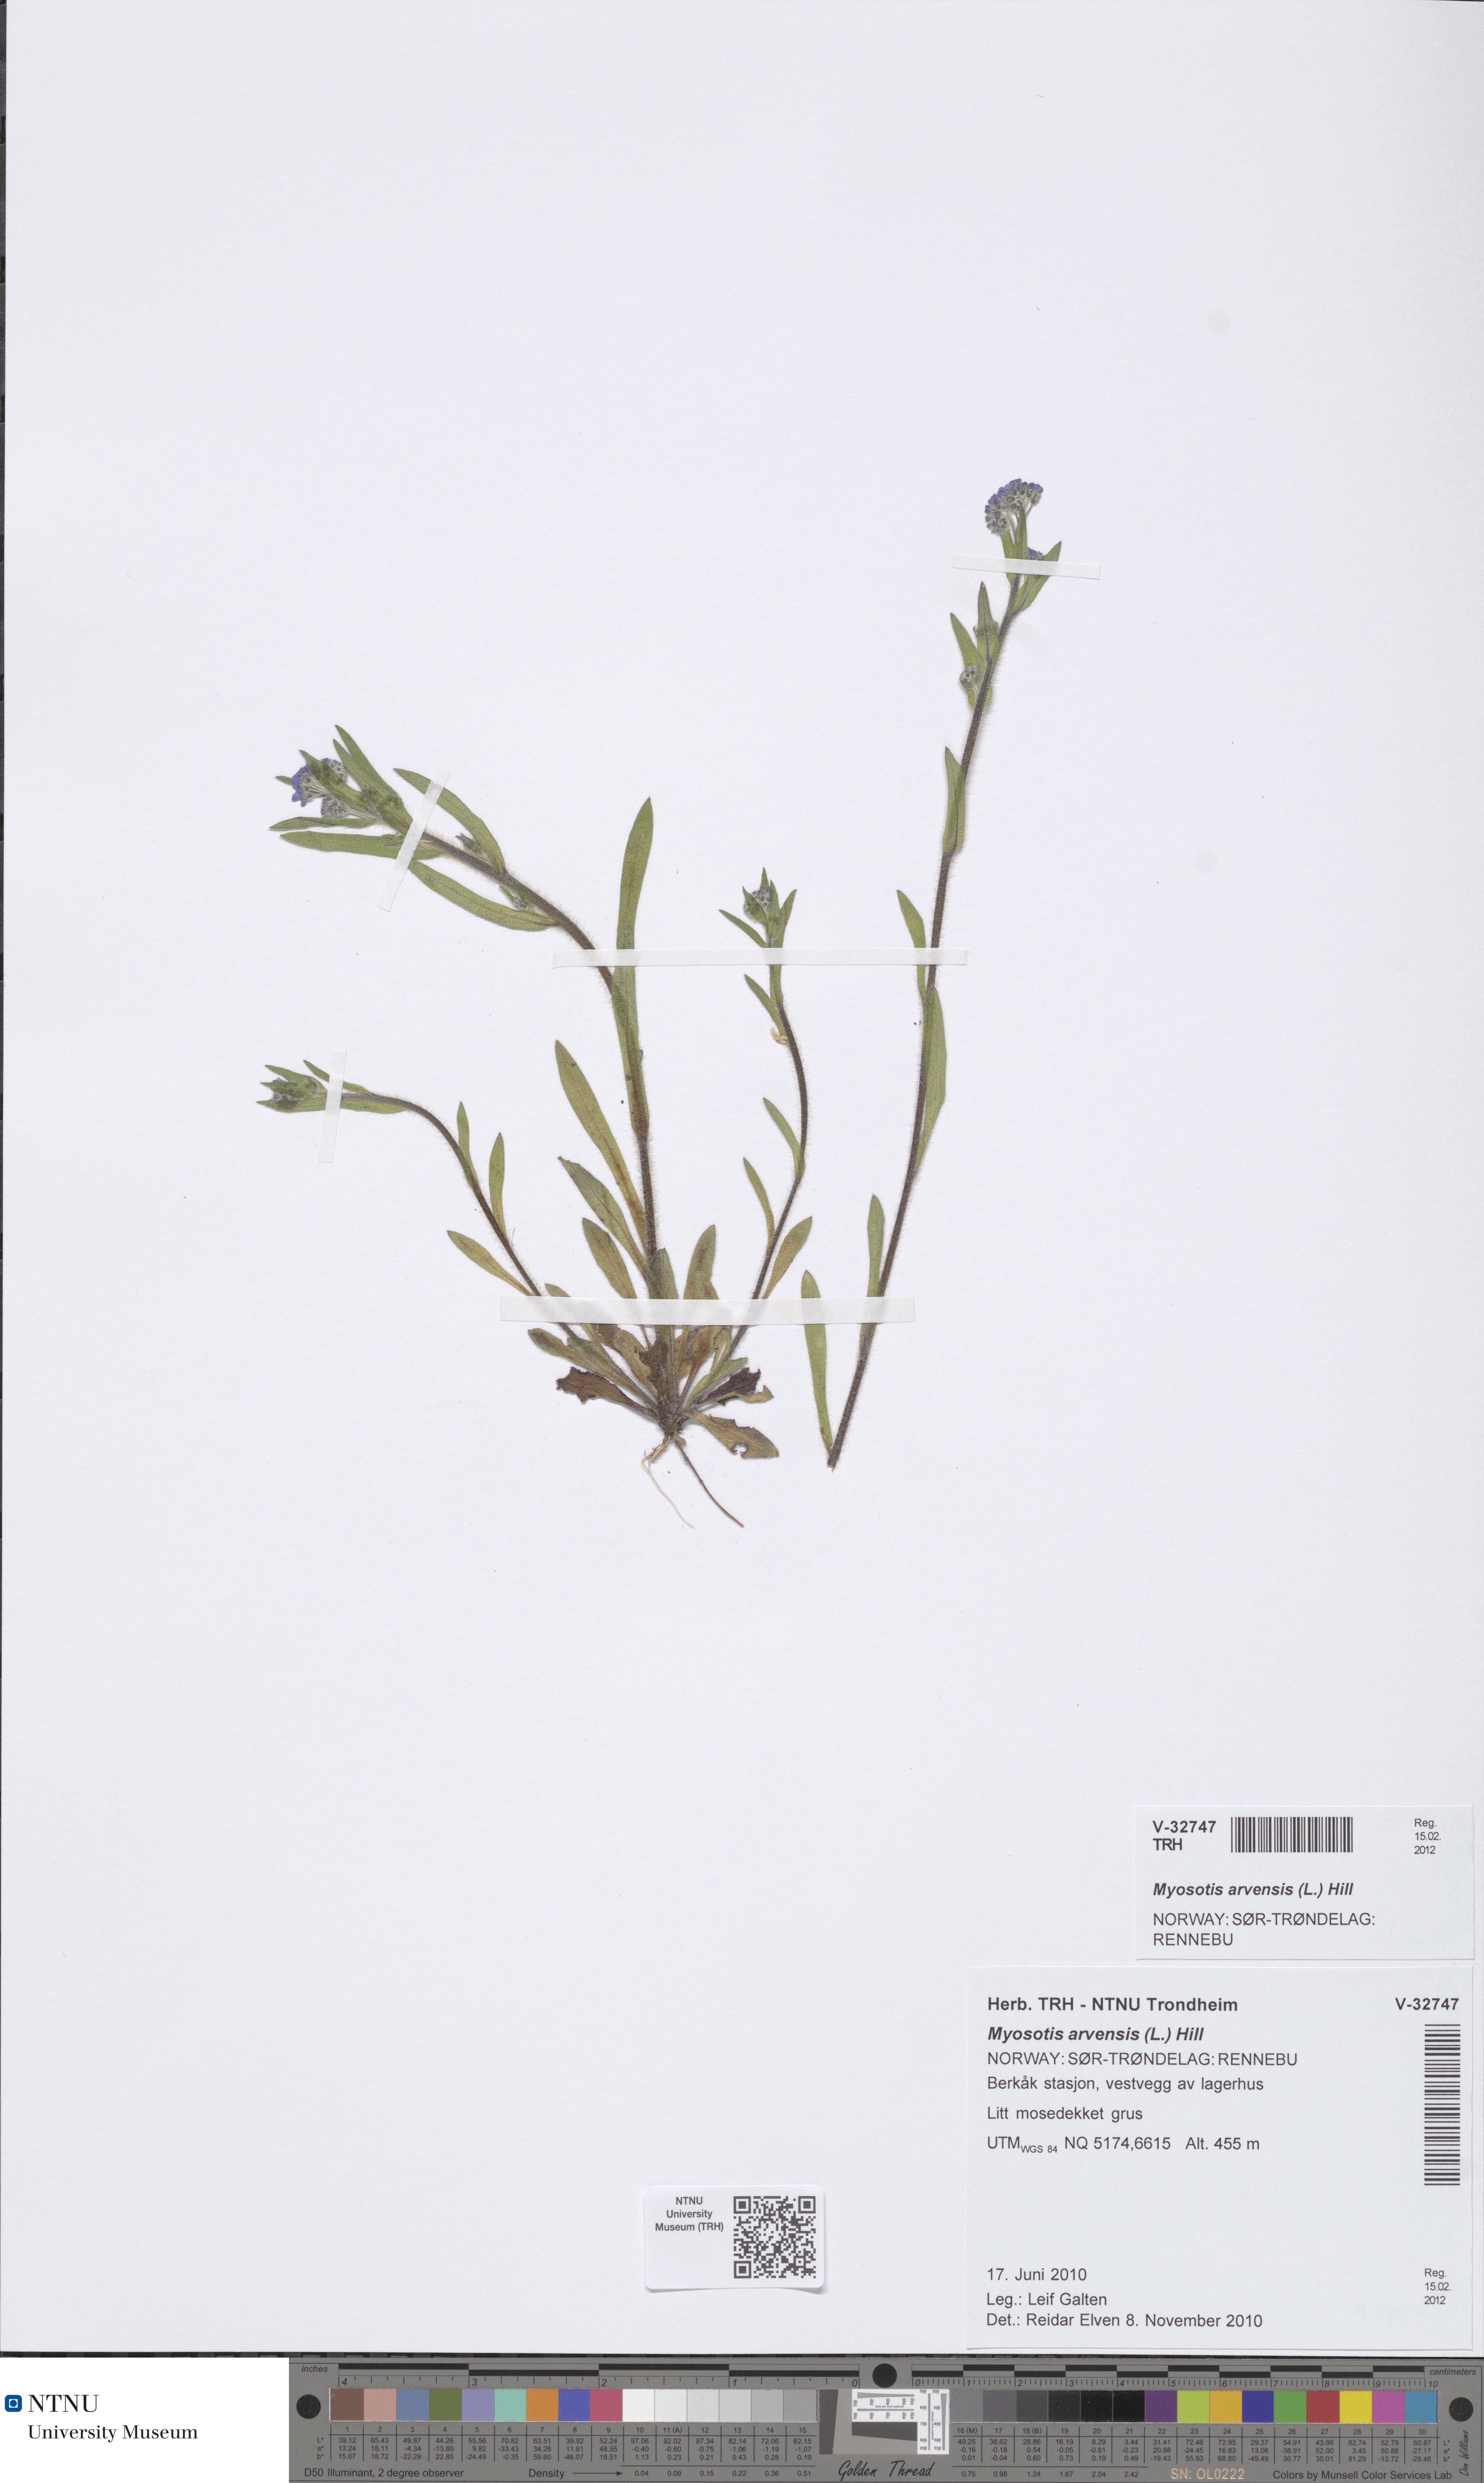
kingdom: Plantae
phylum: Tracheophyta
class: Magnoliopsida
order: Boraginales
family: Boraginaceae
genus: Myosotis
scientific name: Myosotis arvensis
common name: Field forget-me-not
